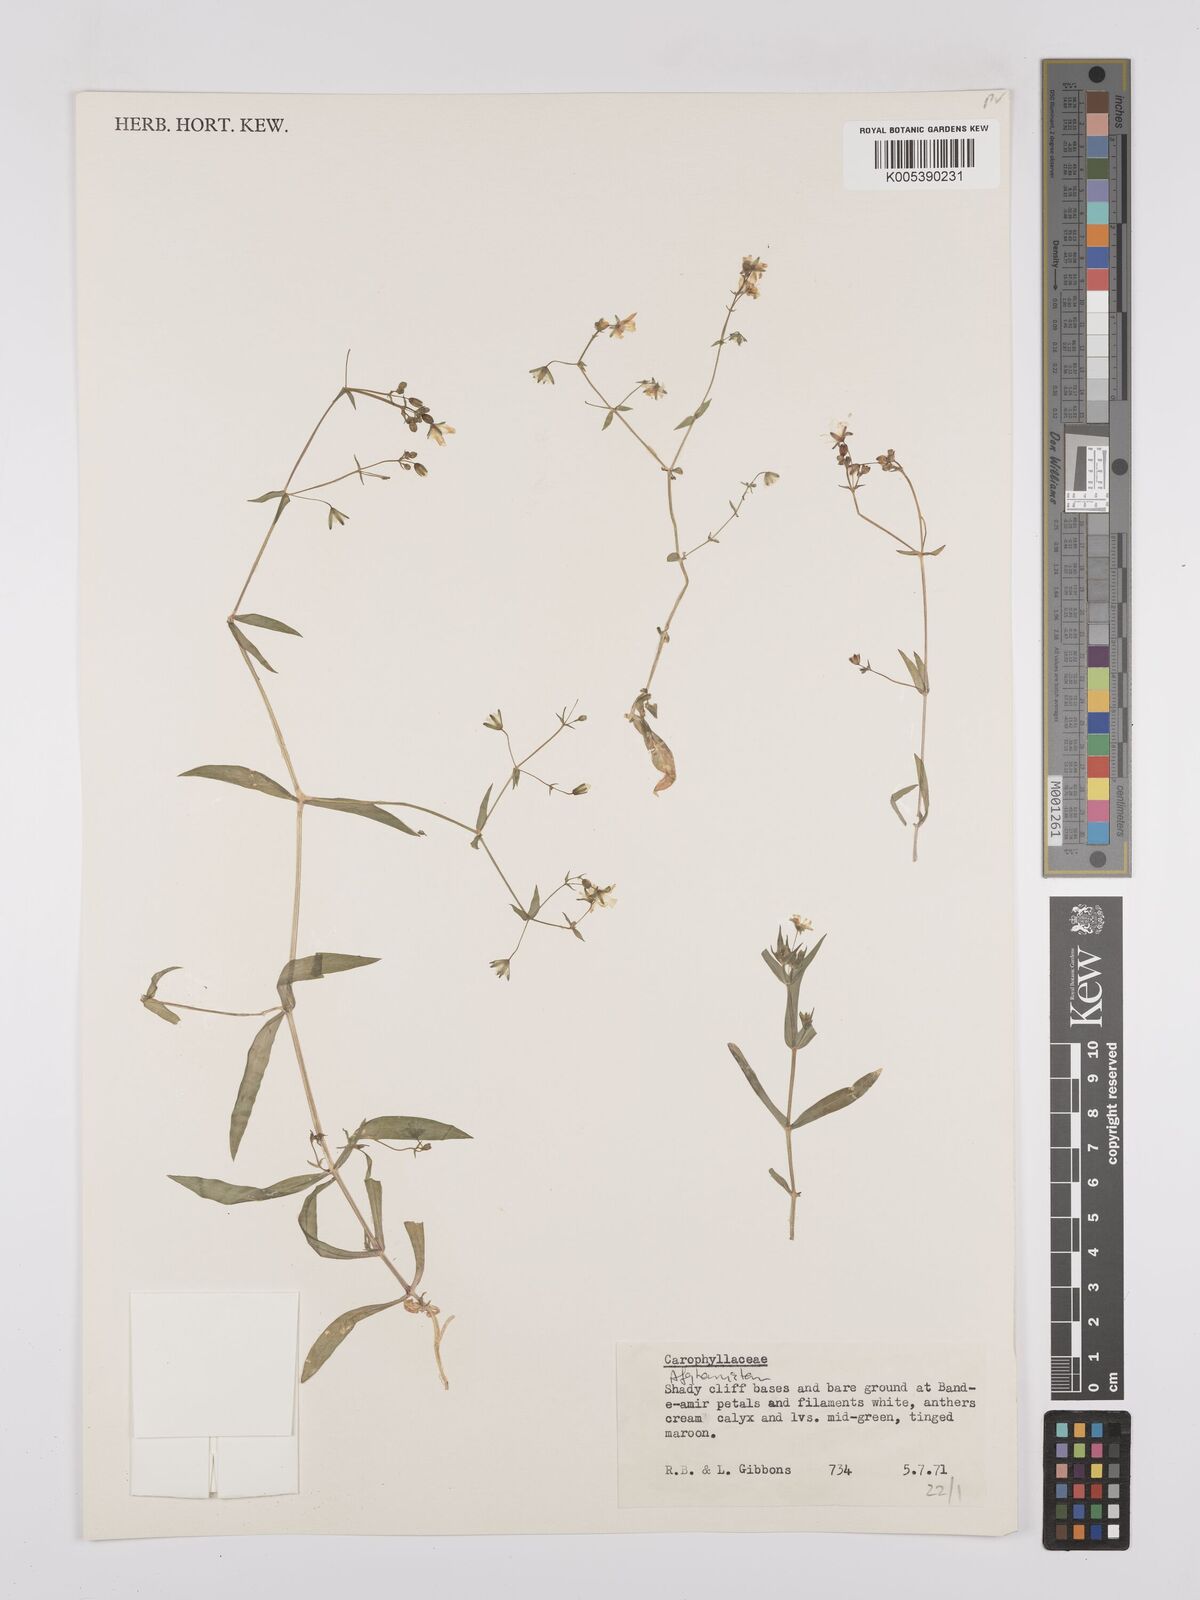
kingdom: Plantae
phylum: Tracheophyta
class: Magnoliopsida
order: Caryophyllales
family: Caryophyllaceae
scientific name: Caryophyllaceae
